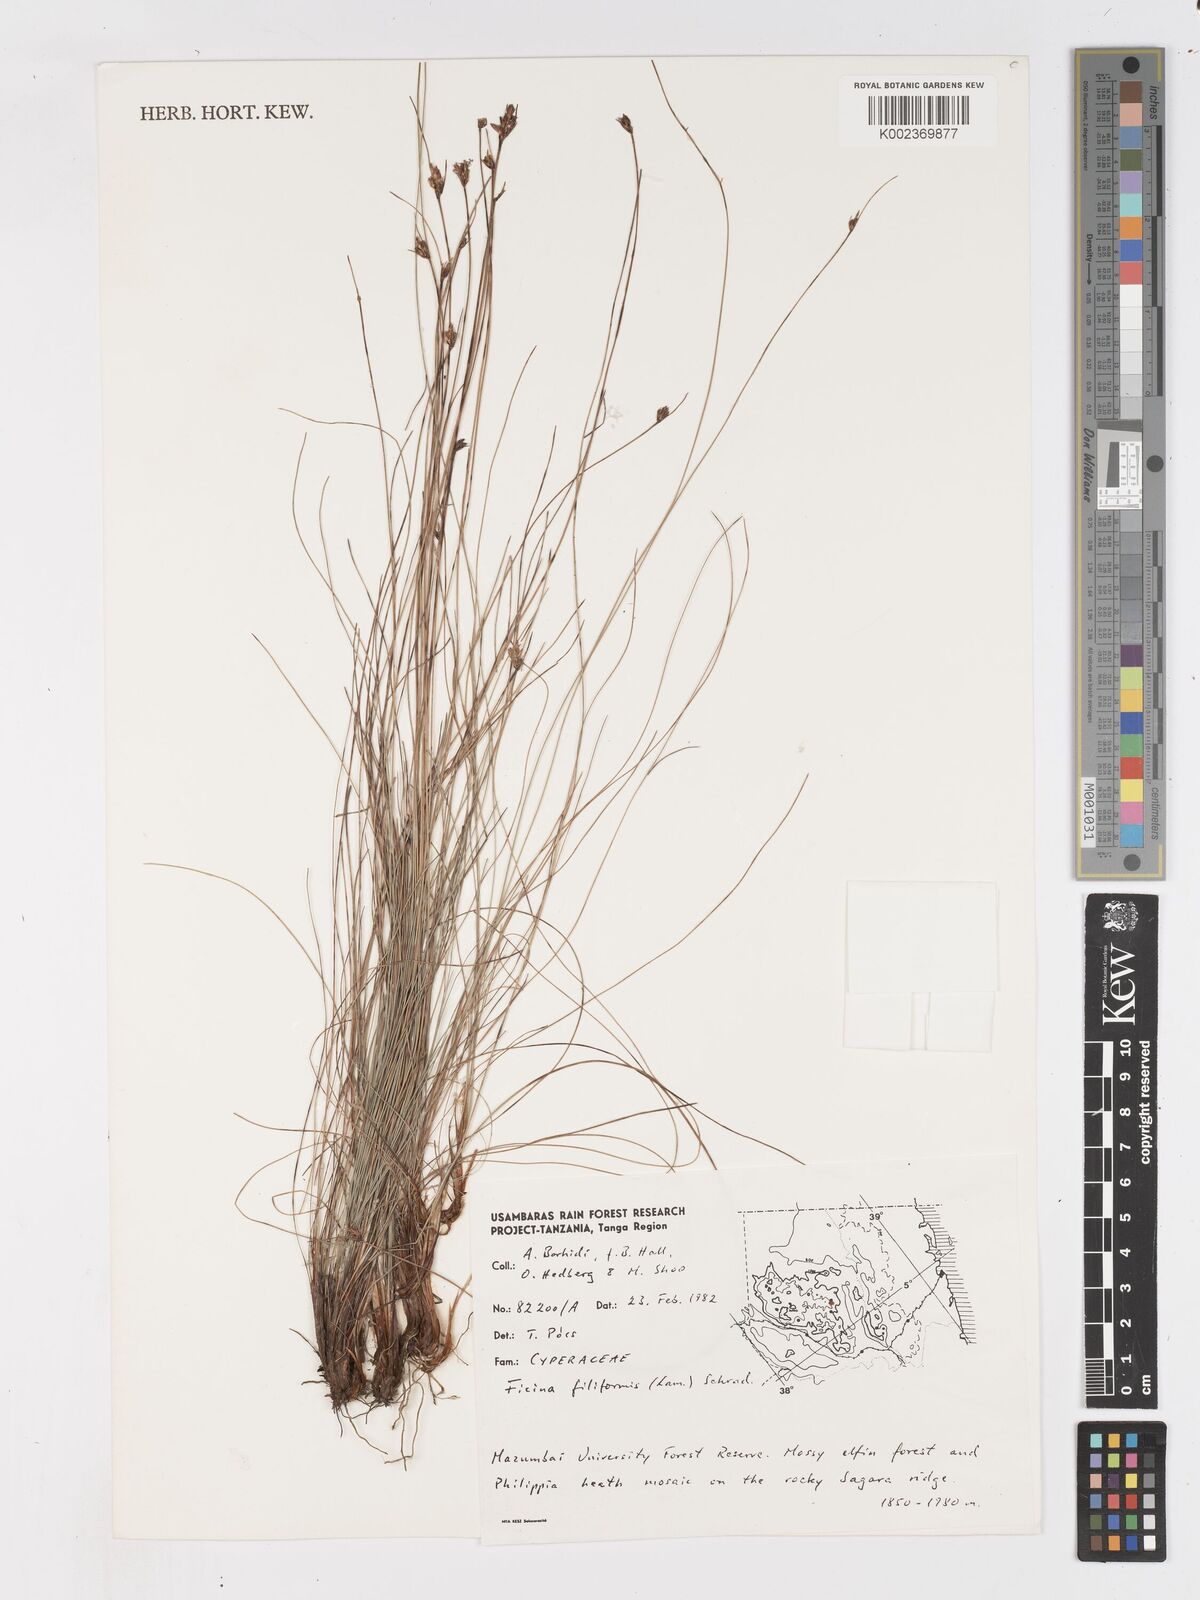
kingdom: Plantae
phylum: Tracheophyta
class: Liliopsida
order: Poales
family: Cyperaceae
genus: Ficinia
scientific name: Ficinia filiformis
